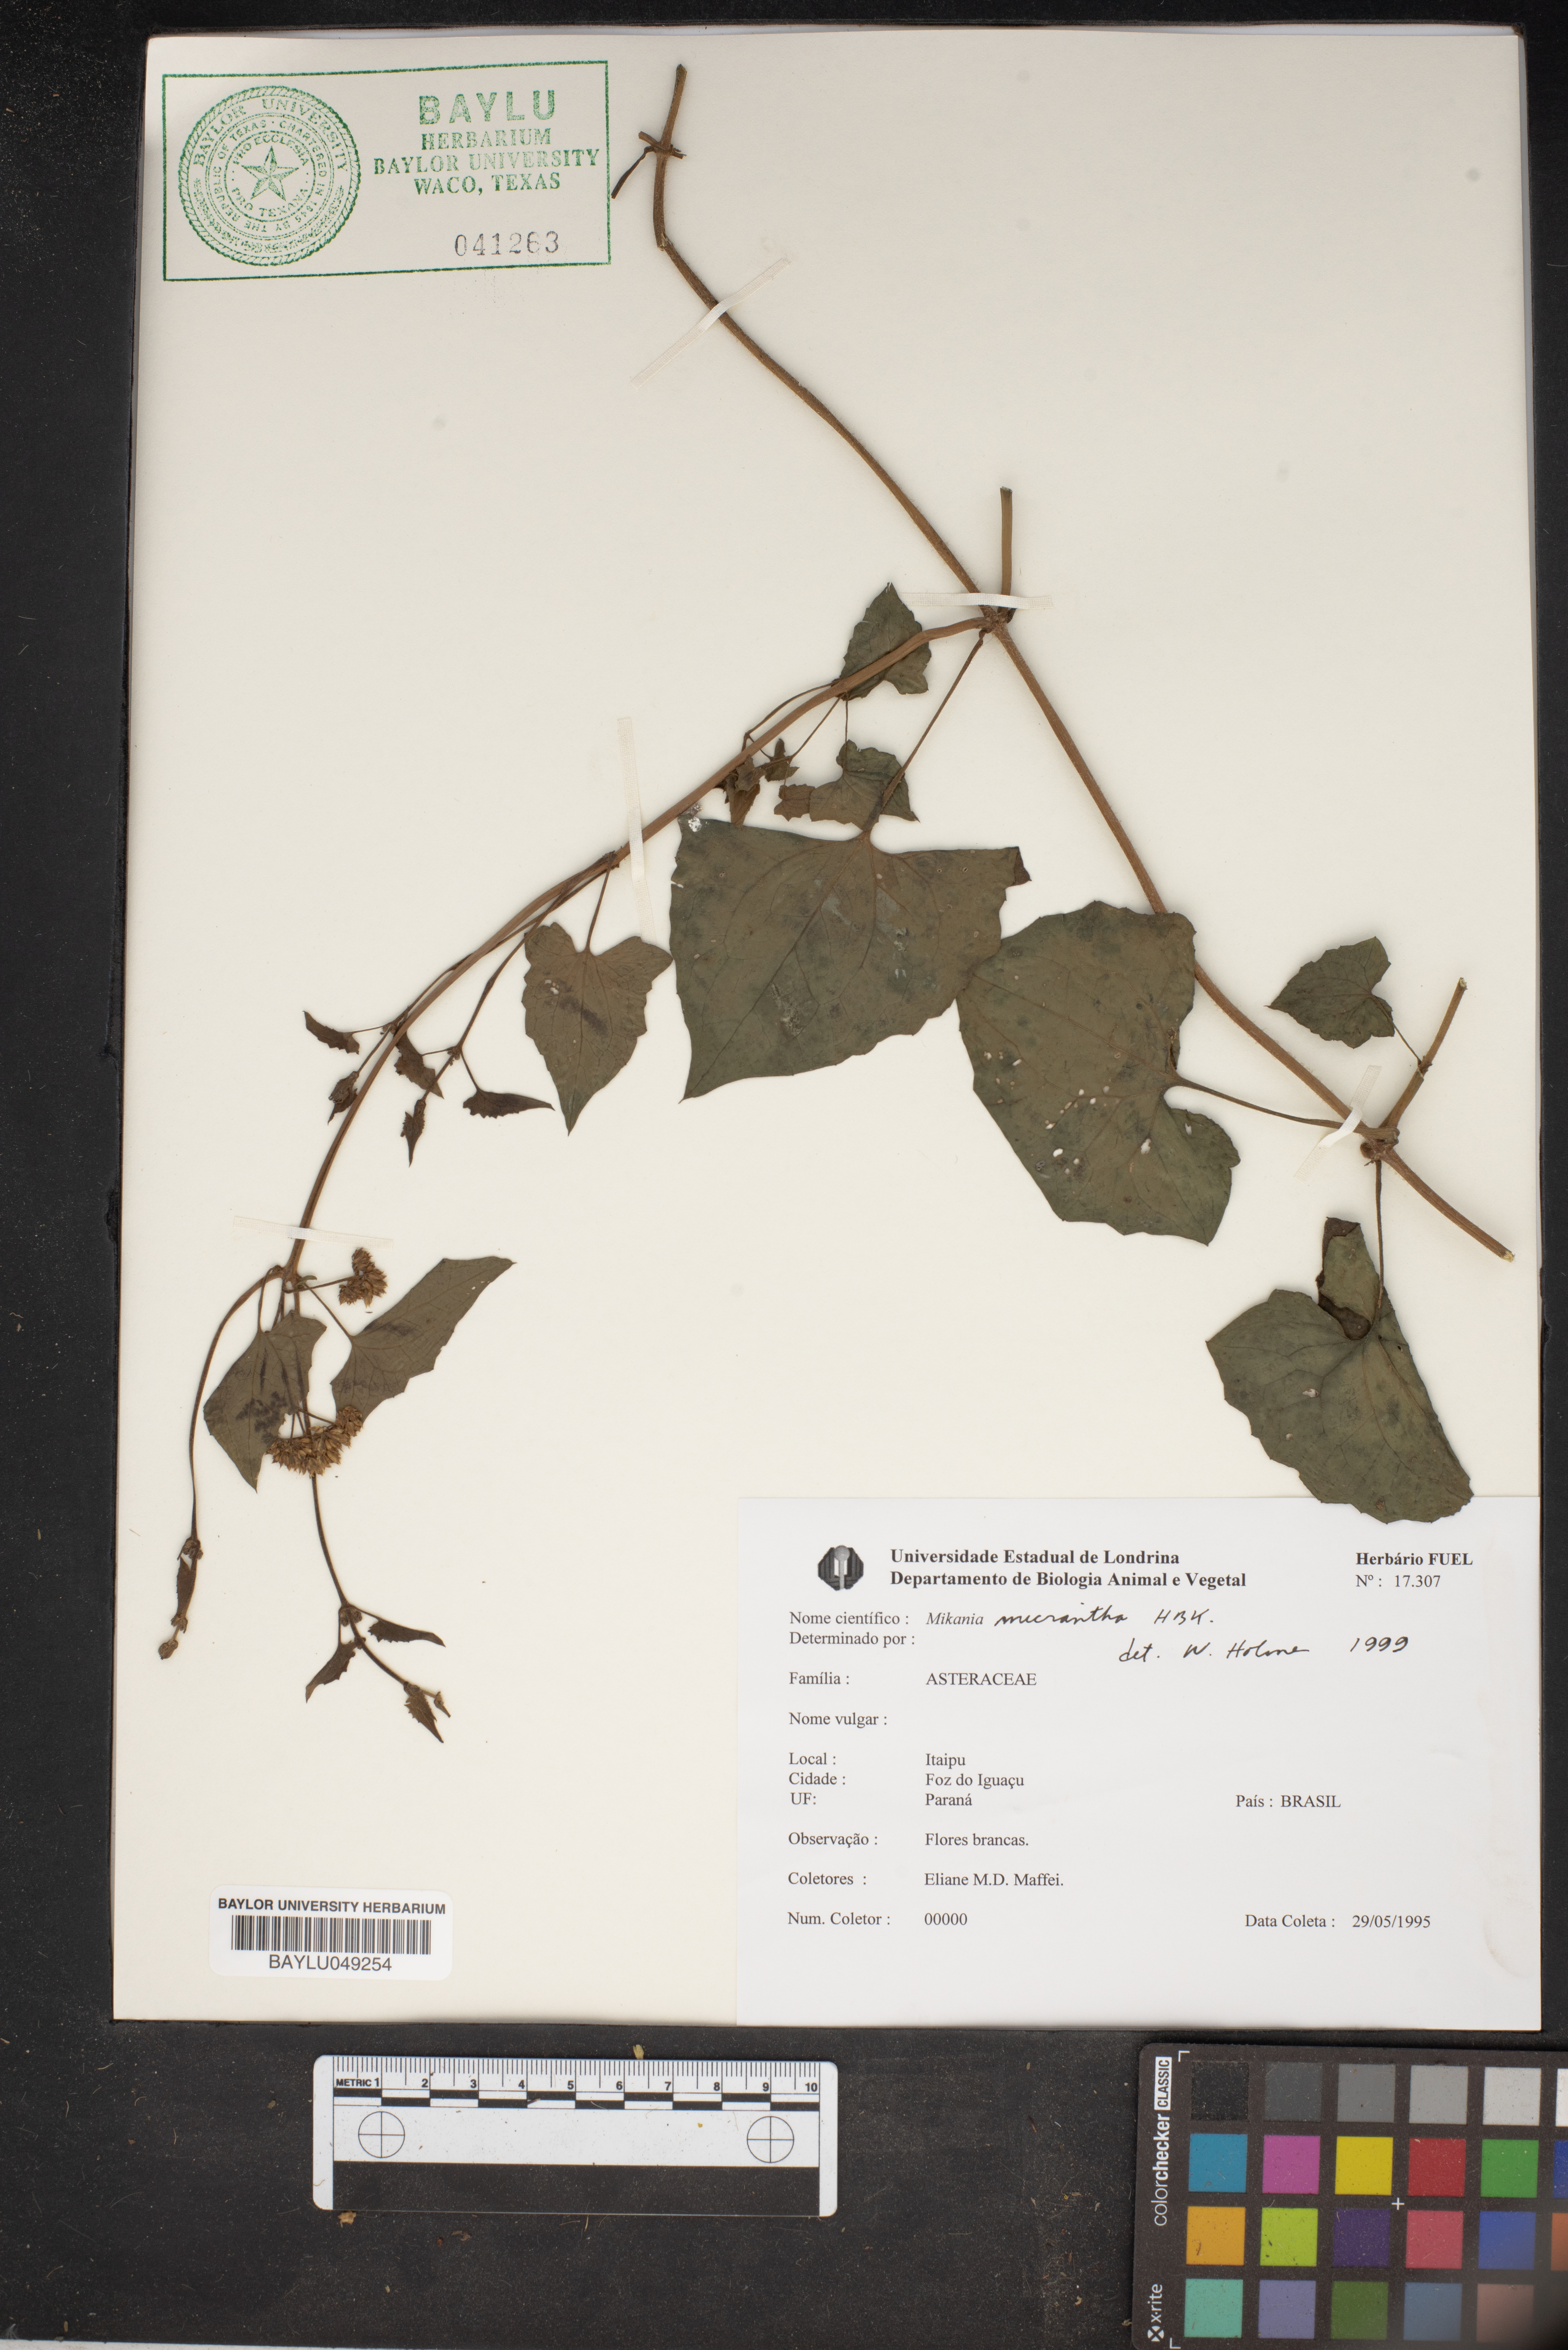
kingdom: Plantae
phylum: Tracheophyta
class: Magnoliopsida
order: Asterales
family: Asteraceae
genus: Mikania
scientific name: Mikania micrantha
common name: Mile-a-minute
